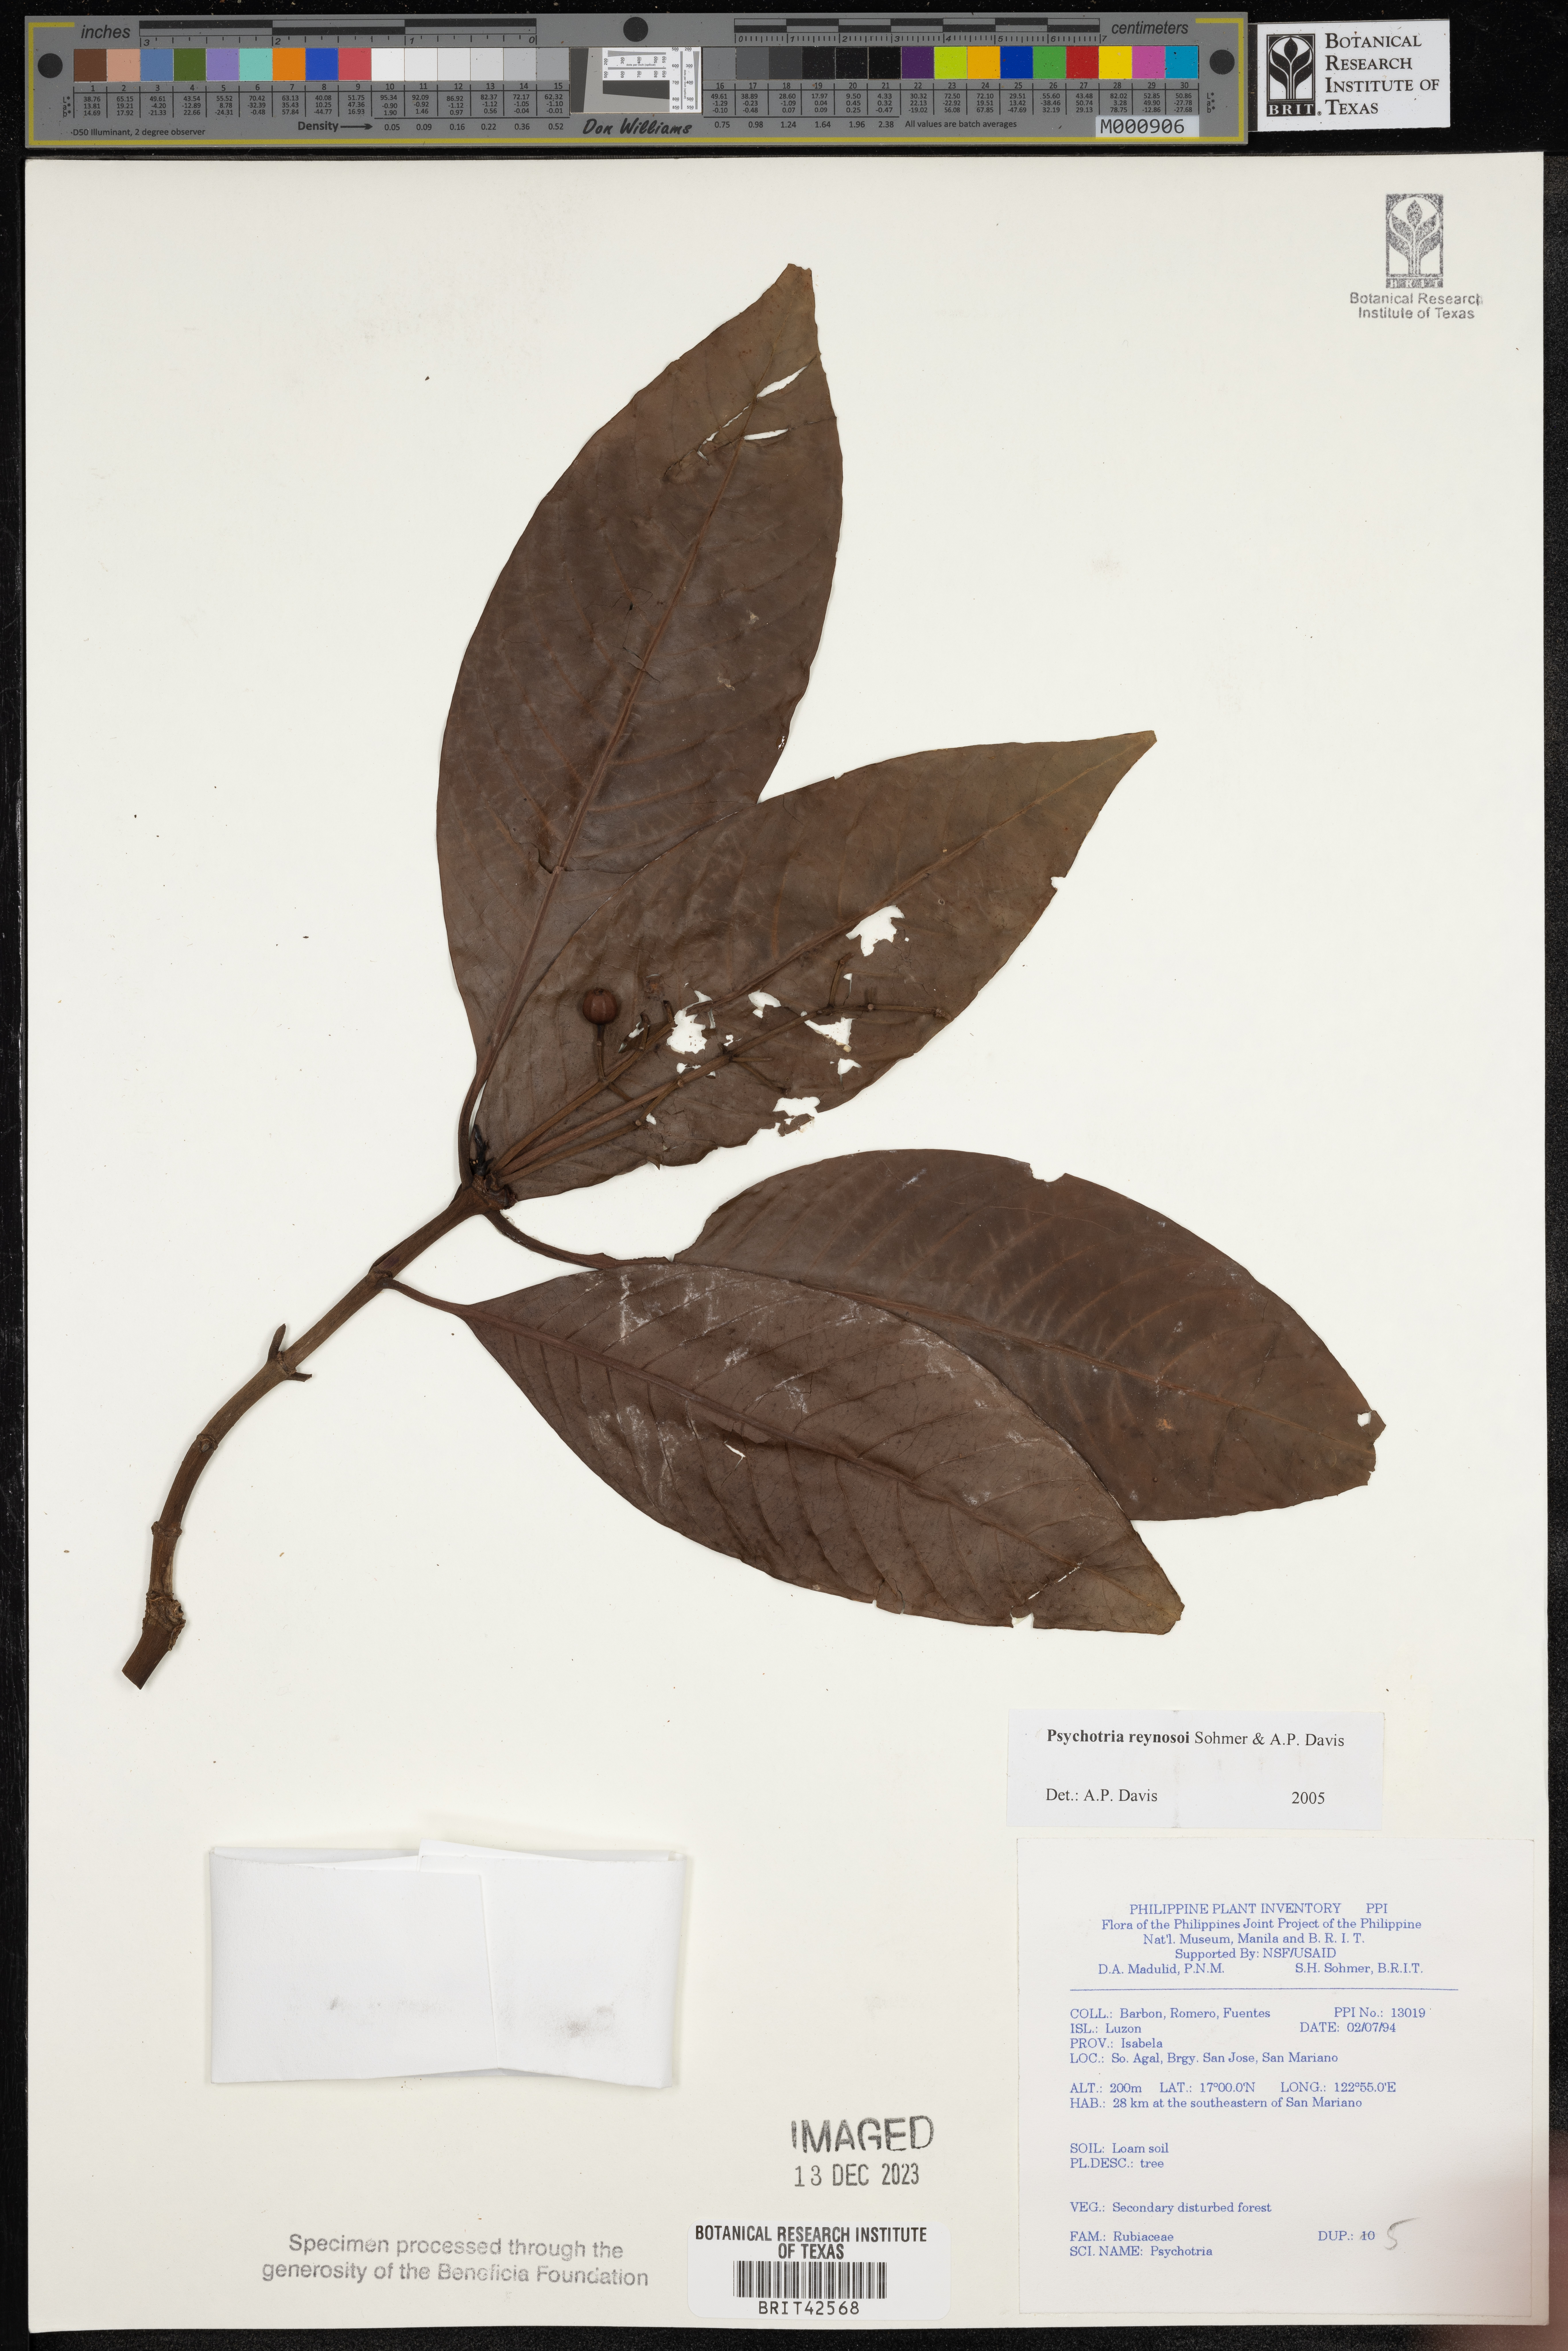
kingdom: Plantae
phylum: Tracheophyta
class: Magnoliopsida
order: Gentianales
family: Rubiaceae
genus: Psychotria
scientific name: Psychotria
